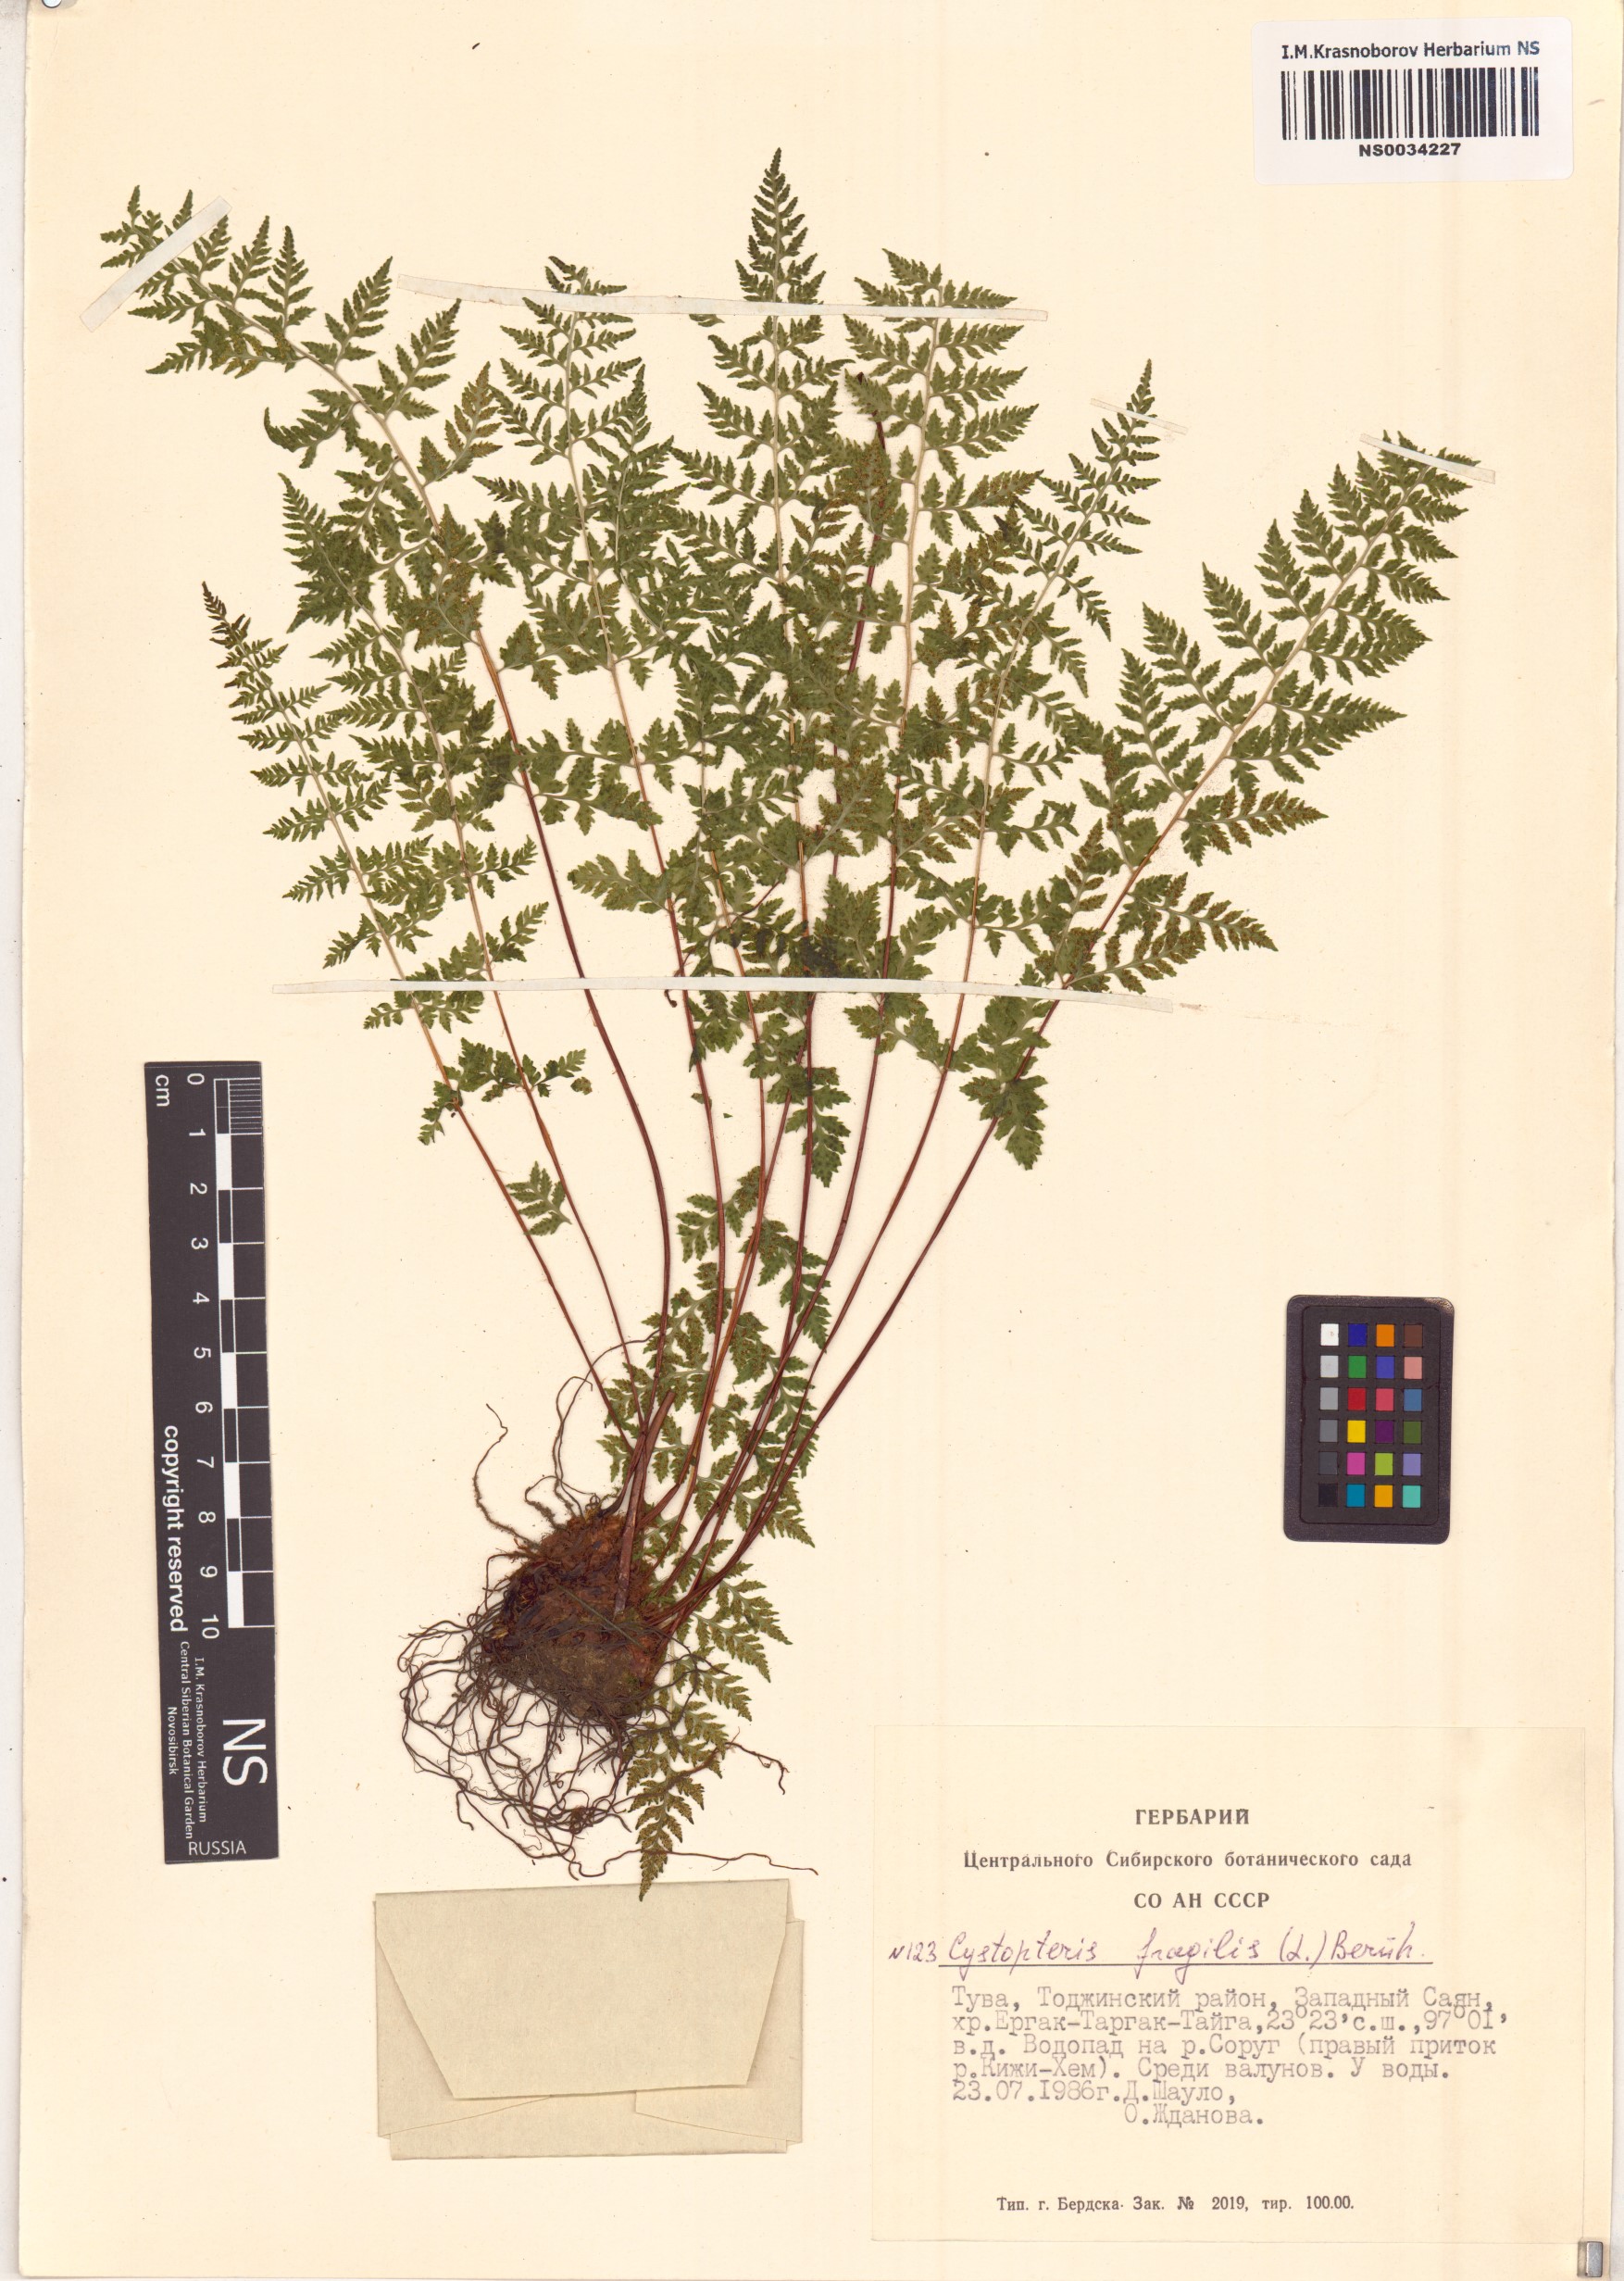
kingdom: Plantae
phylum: Tracheophyta
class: Polypodiopsida
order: Polypodiales
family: Cystopteridaceae
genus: Cystopteris
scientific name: Cystopteris fragilis
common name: Brittle bladder fern
